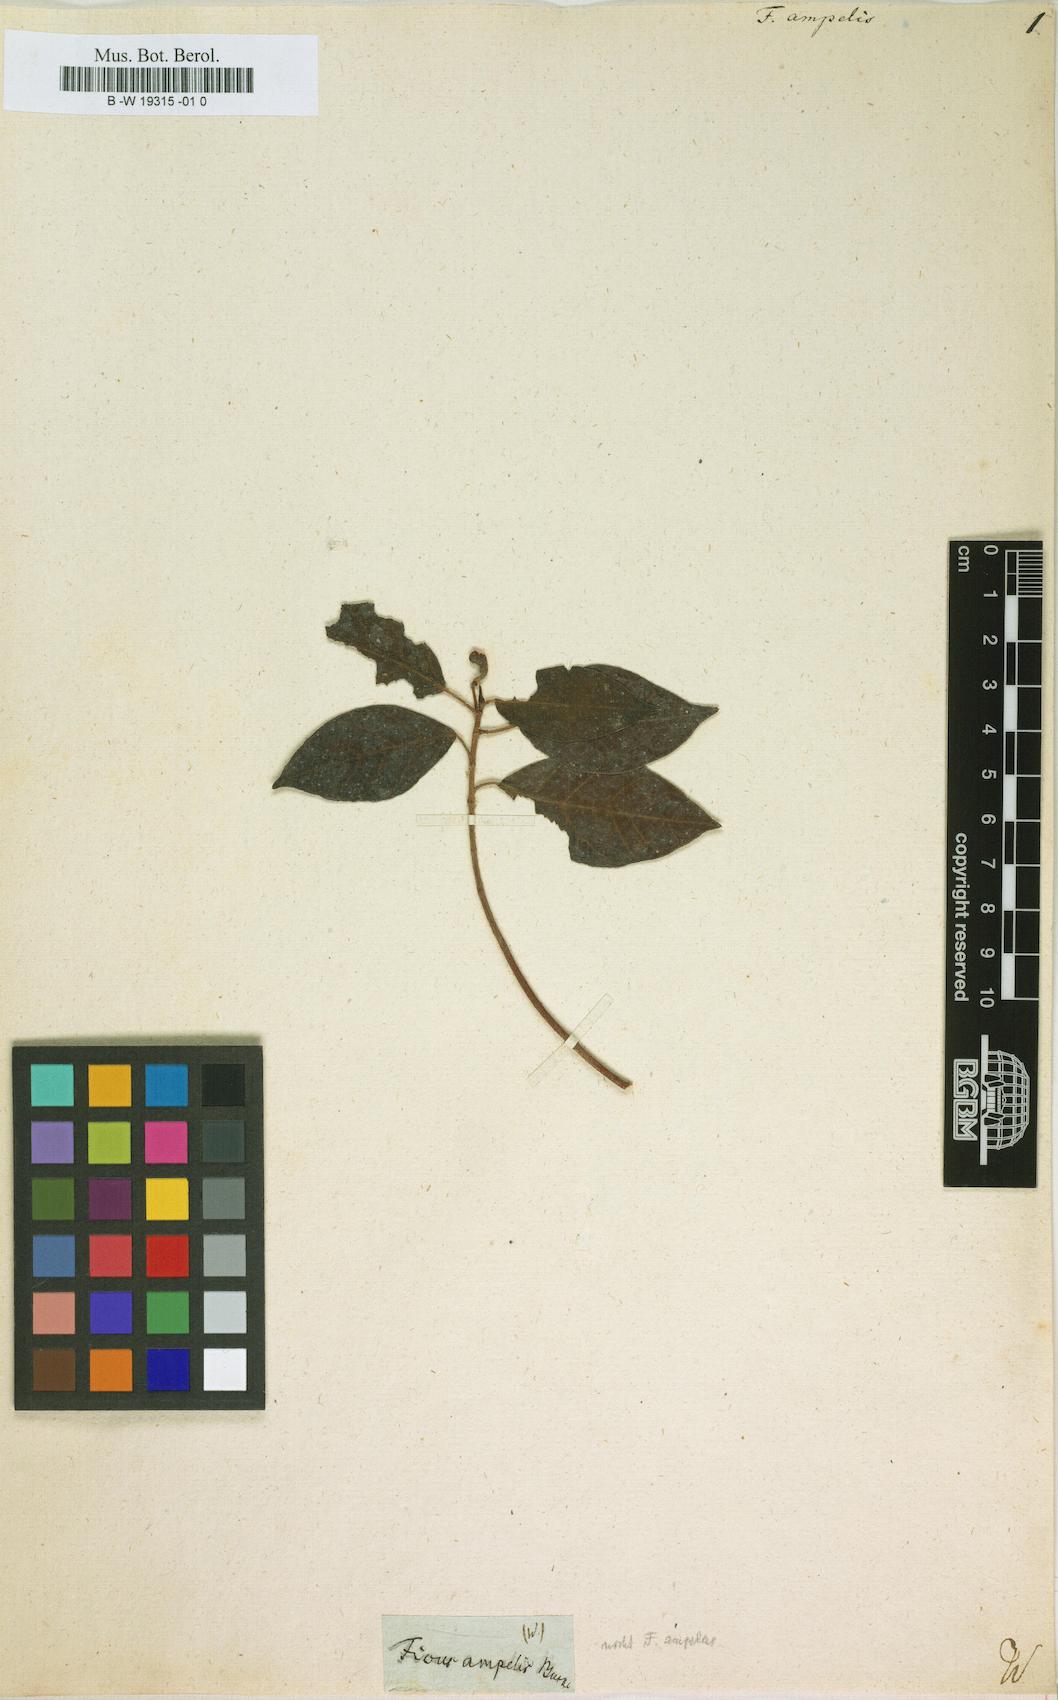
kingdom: Plantae
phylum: Tracheophyta
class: Magnoliopsida
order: Rosales
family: Moraceae
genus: Ficus
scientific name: Ficus
